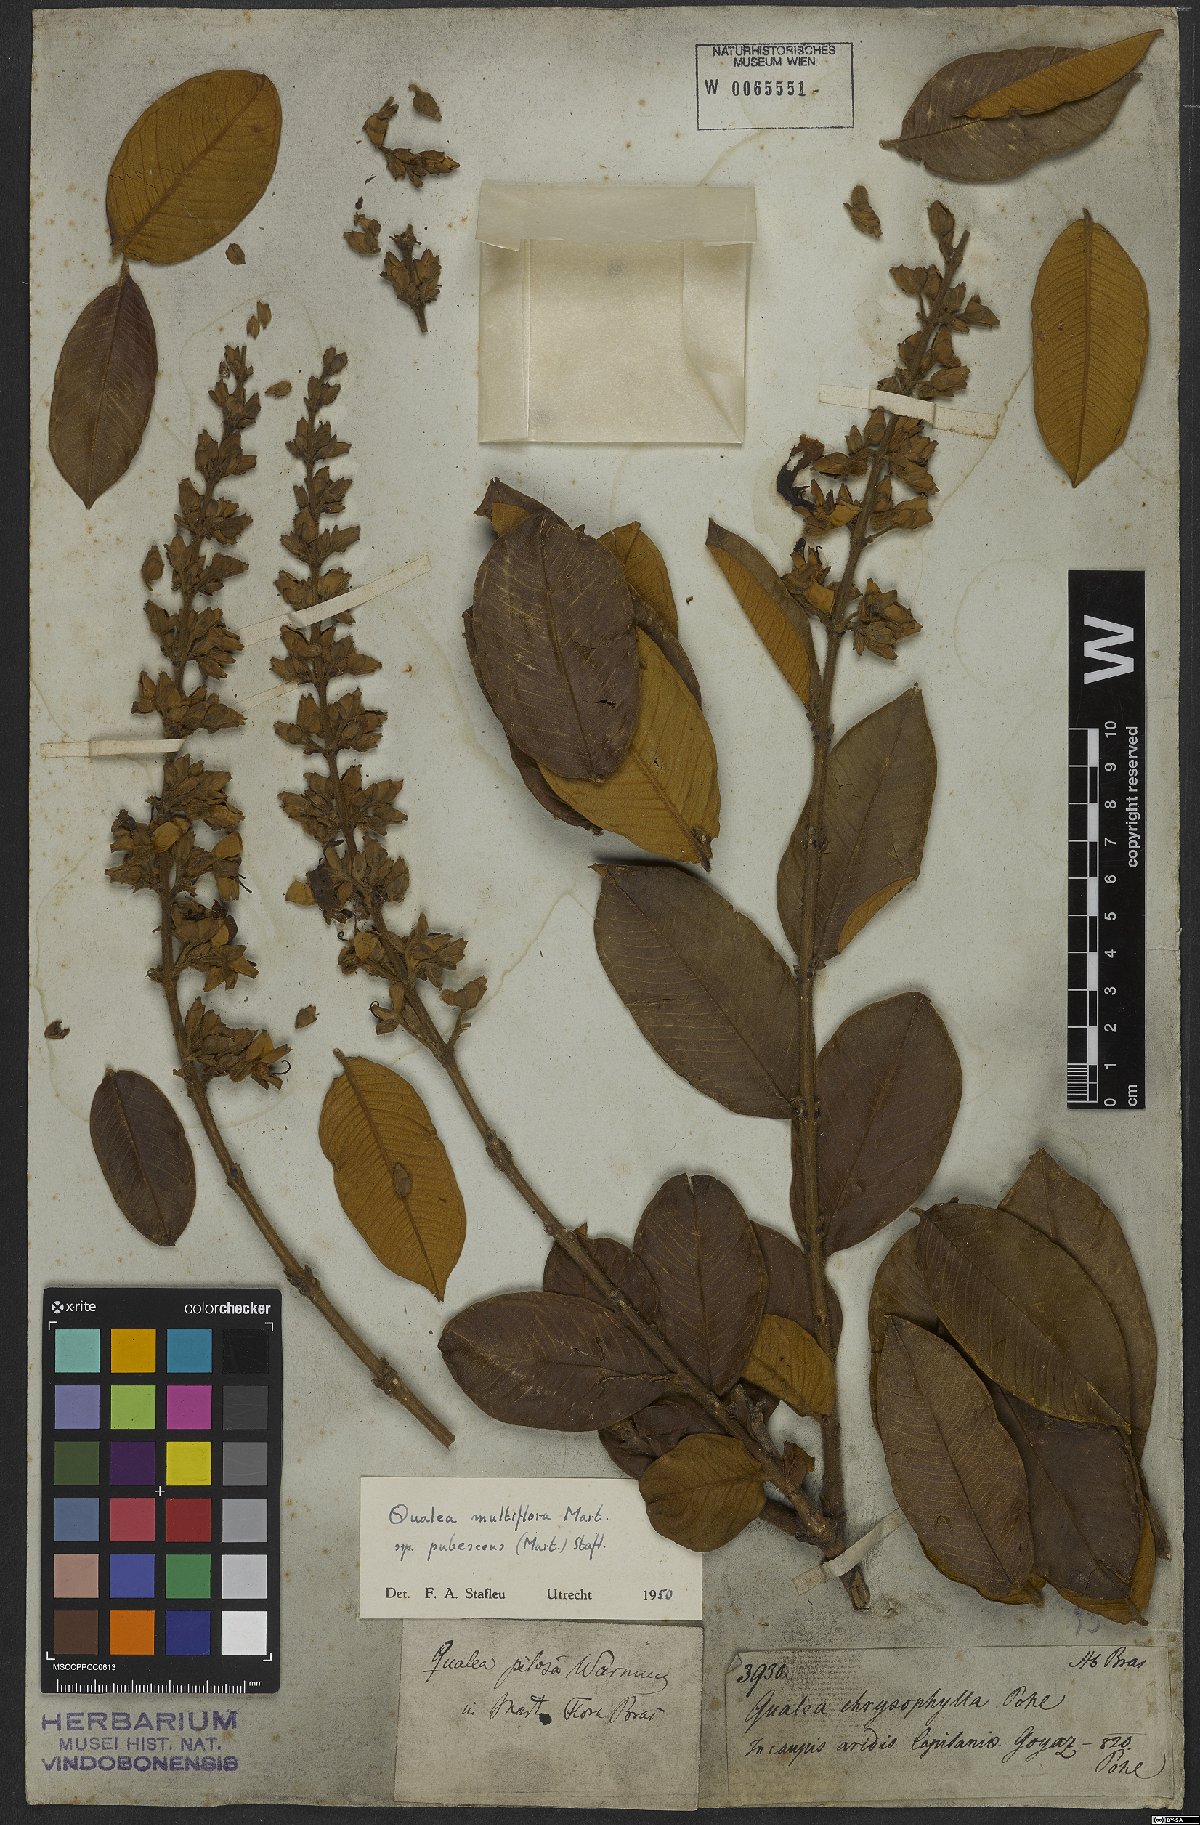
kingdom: Plantae
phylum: Tracheophyta
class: Magnoliopsida
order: Myrtales
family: Vochysiaceae
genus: Qualea
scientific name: Qualea multiflora
